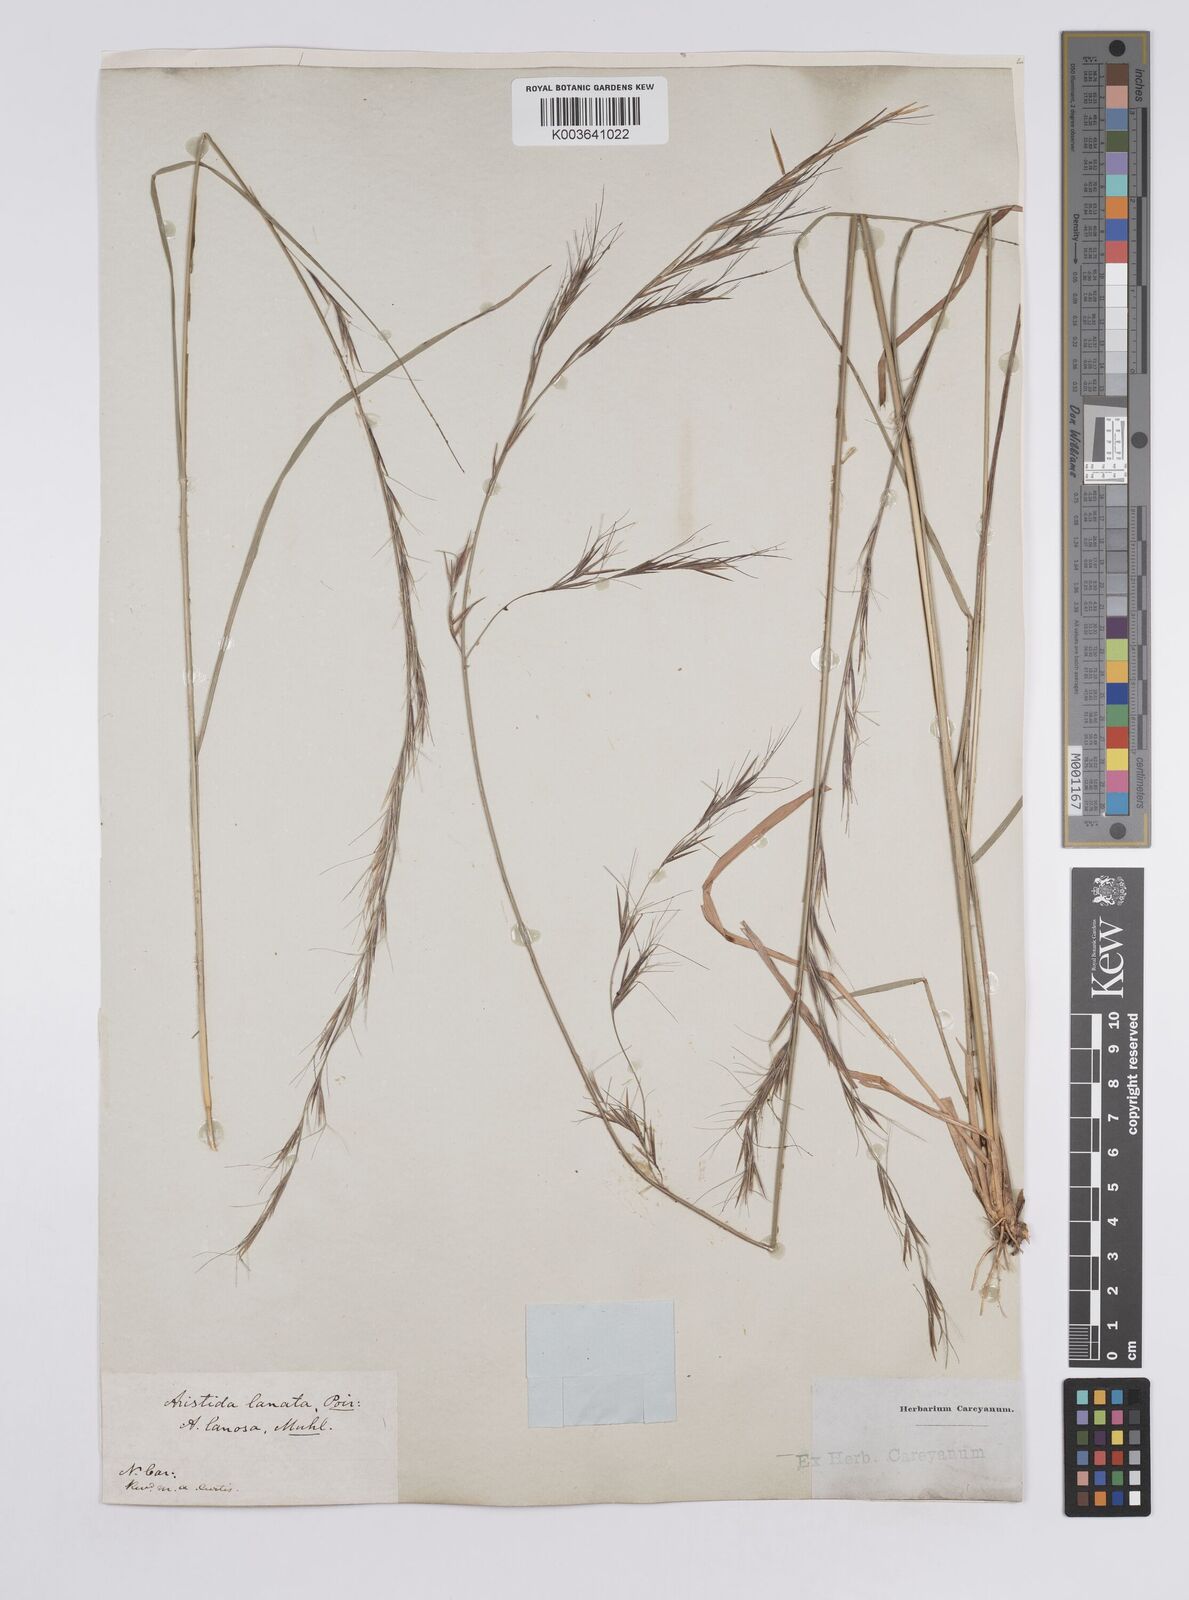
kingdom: Plantae
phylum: Tracheophyta
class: Liliopsida
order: Poales
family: Poaceae
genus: Aristida
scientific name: Aristida lanosa
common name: Woolly three-awn
